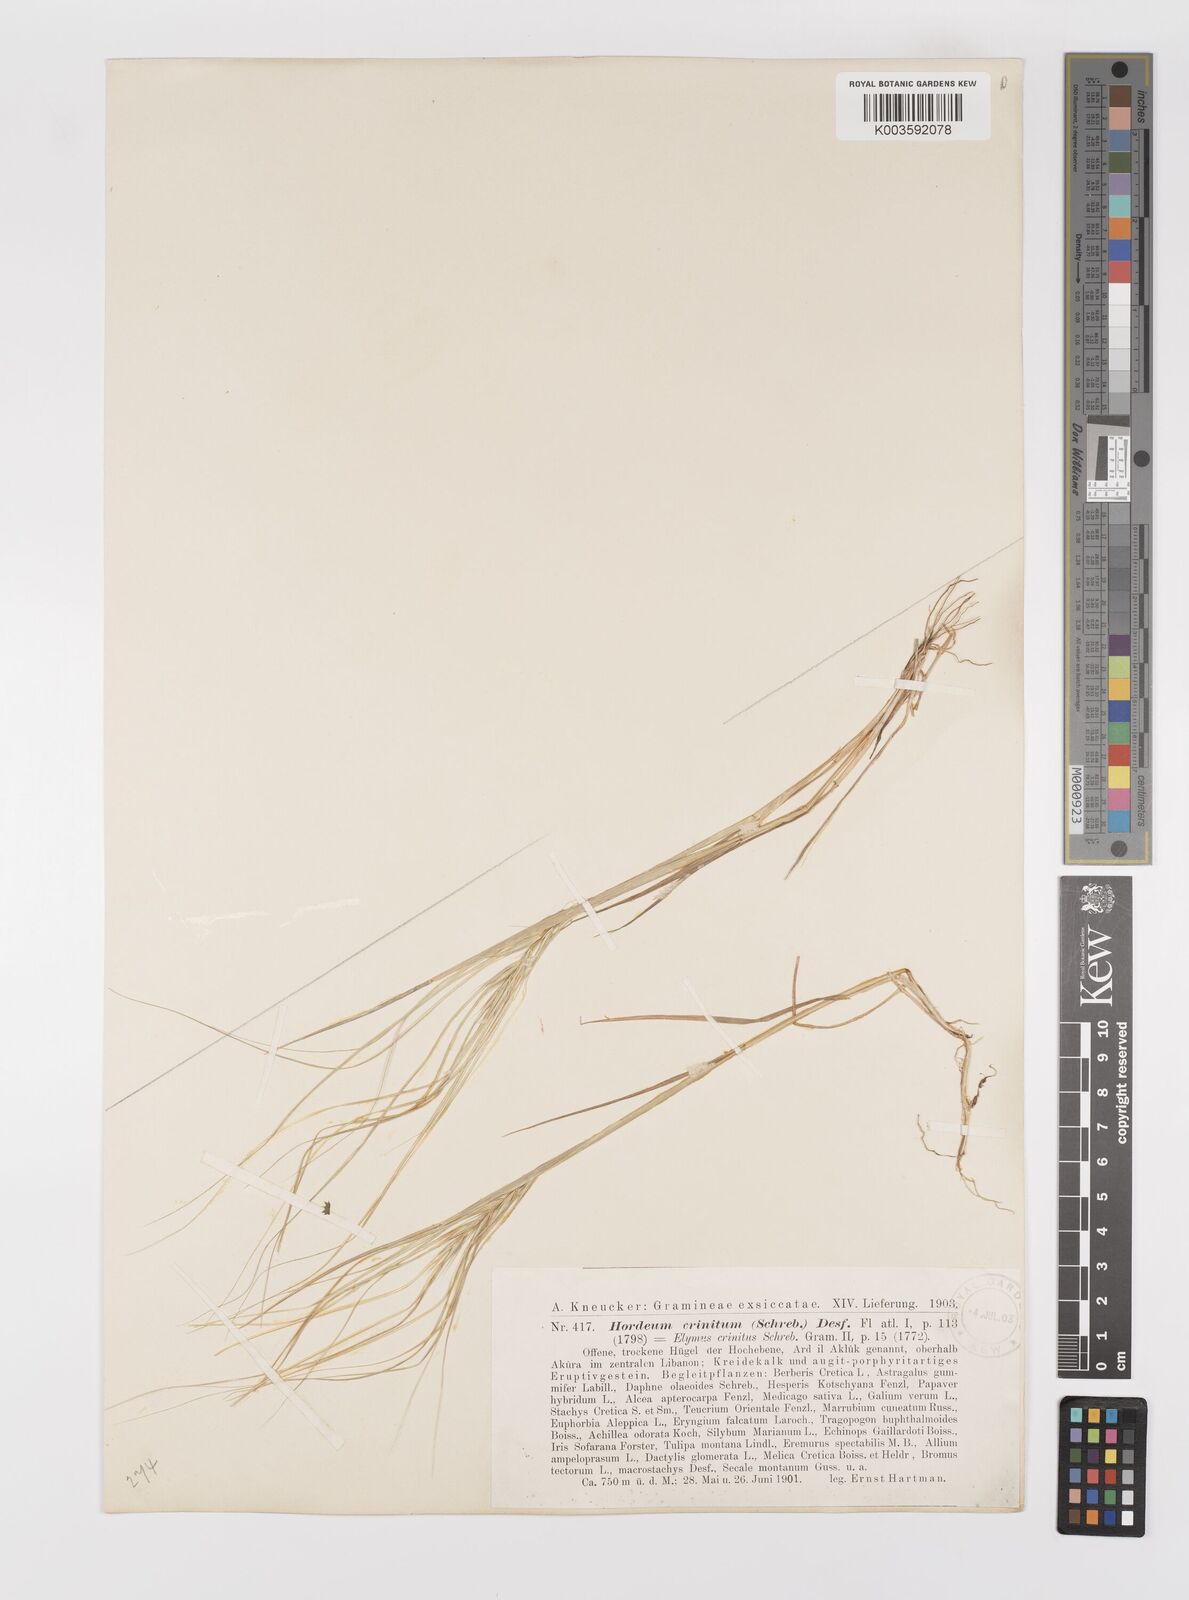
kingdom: Plantae
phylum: Tracheophyta
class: Liliopsida
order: Poales
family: Poaceae
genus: Taeniatherum
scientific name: Taeniatherum caput-medusae
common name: Medusahead
